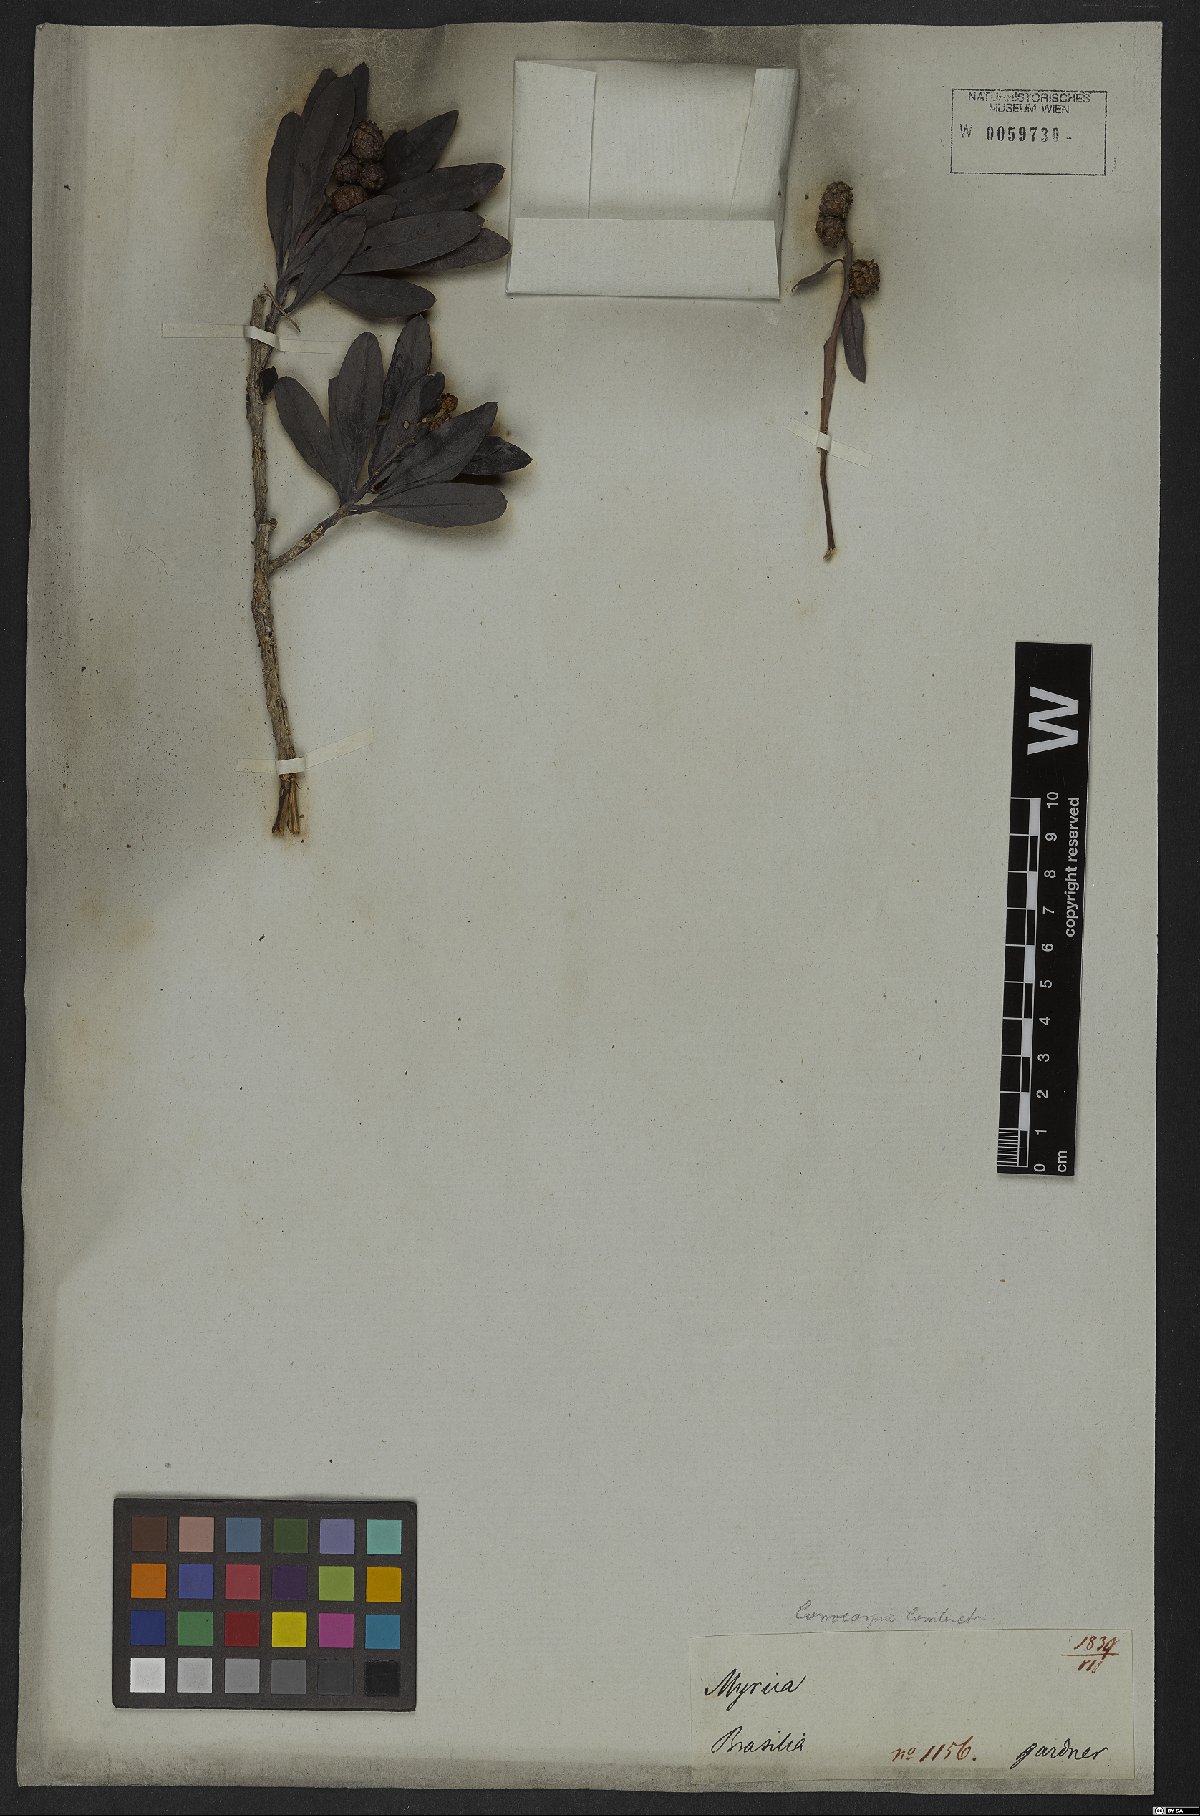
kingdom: Plantae
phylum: Tracheophyta
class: Magnoliopsida
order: Myrtales
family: Combretaceae
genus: Conocarpus
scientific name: Conocarpus erectus
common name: Button mangrove
